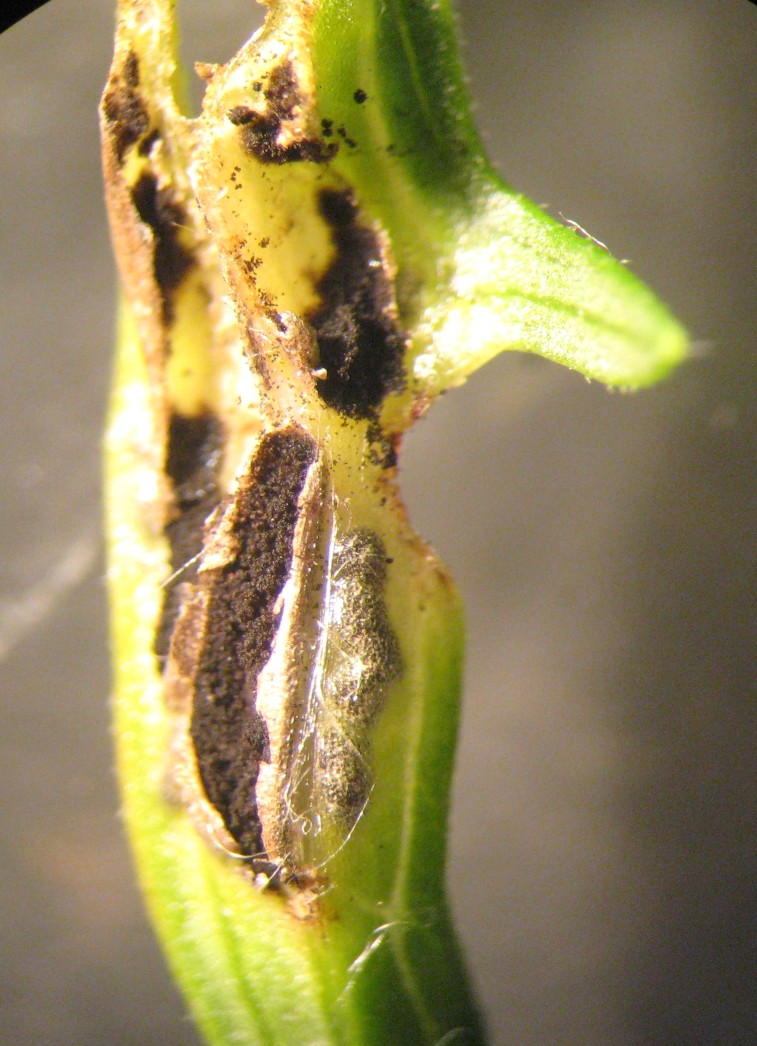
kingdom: Fungi
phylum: Basidiomycota
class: Ustilaginomycetes
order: Urocystidales
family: Urocystidaceae
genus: Urocystis
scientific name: Urocystis anemones
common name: anemone-brand
